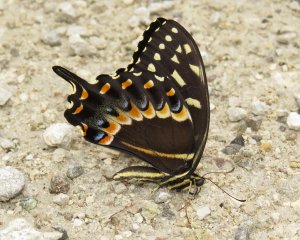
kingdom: Animalia
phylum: Arthropoda
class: Insecta
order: Lepidoptera
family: Papilionidae
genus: Pterourus
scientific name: Pterourus palamedes
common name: Palamedes Swallowtail
